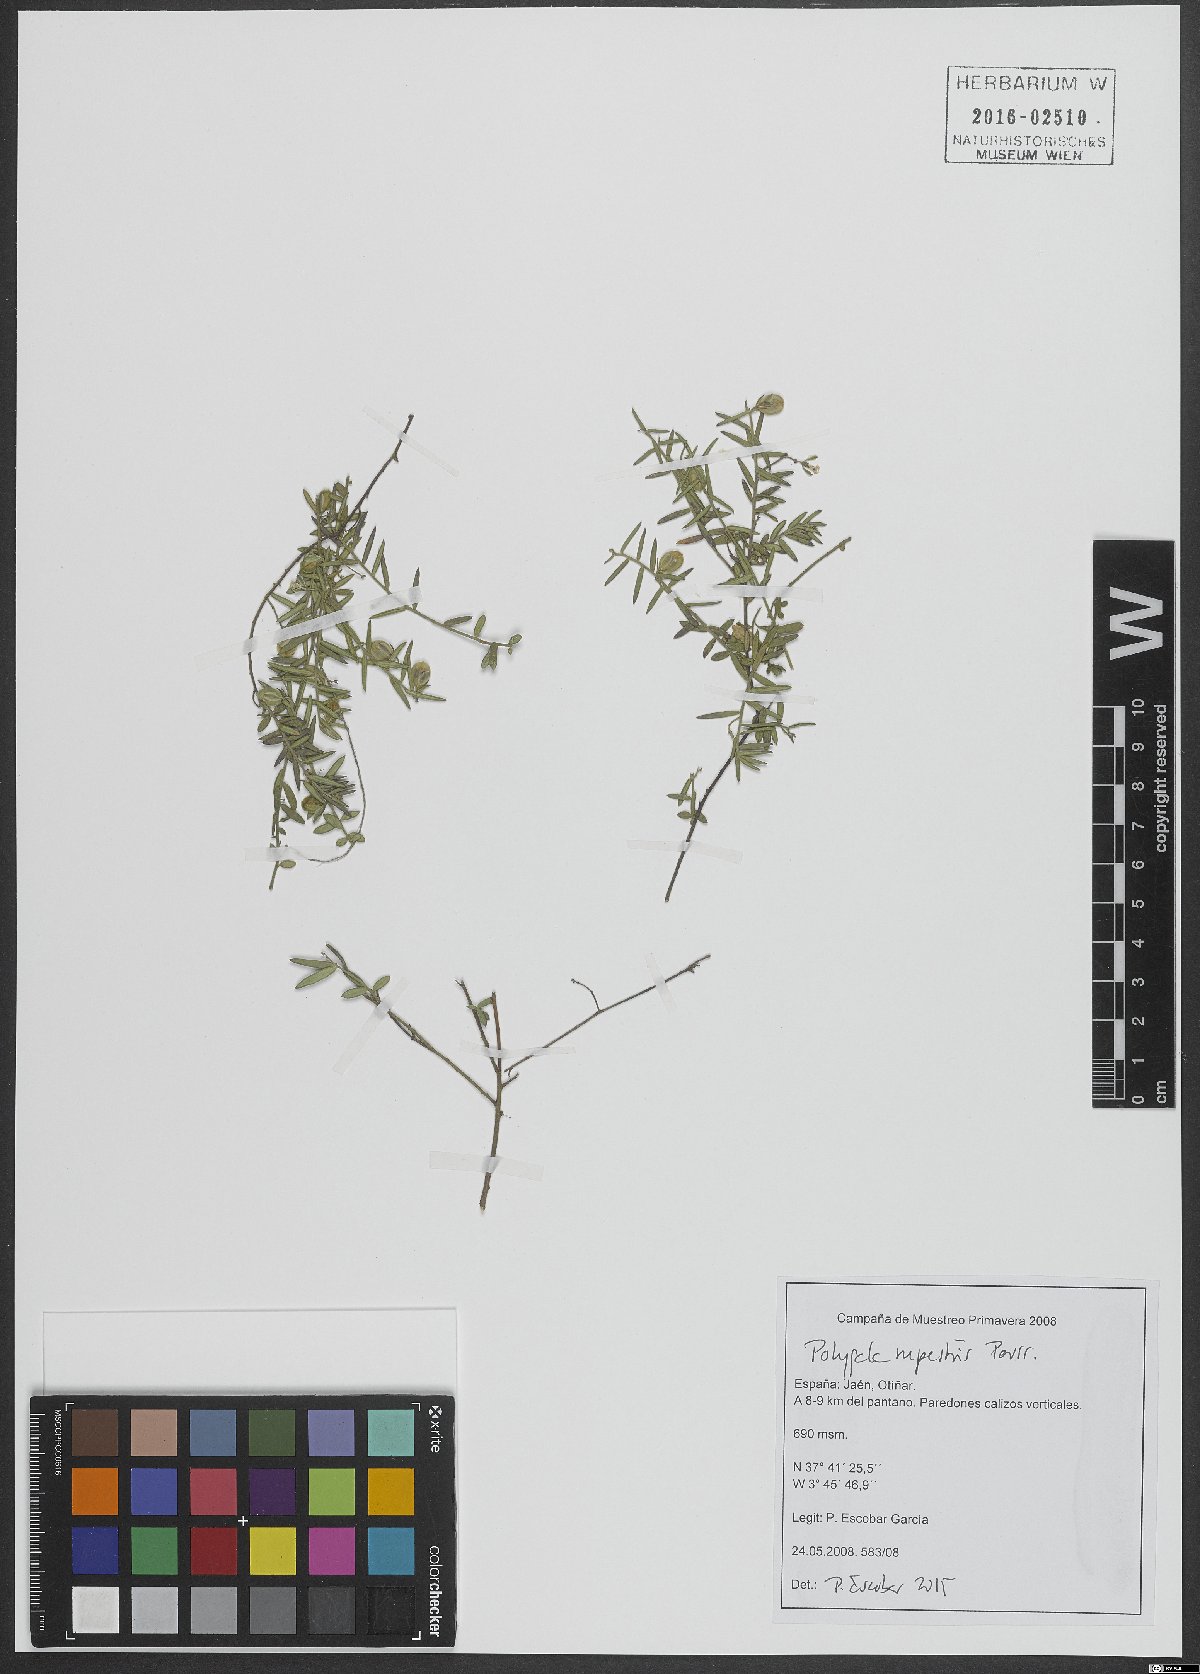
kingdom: Plantae
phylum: Tracheophyta
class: Magnoliopsida
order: Fabales
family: Polygalaceae
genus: Polygala
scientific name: Polygala rupestris
